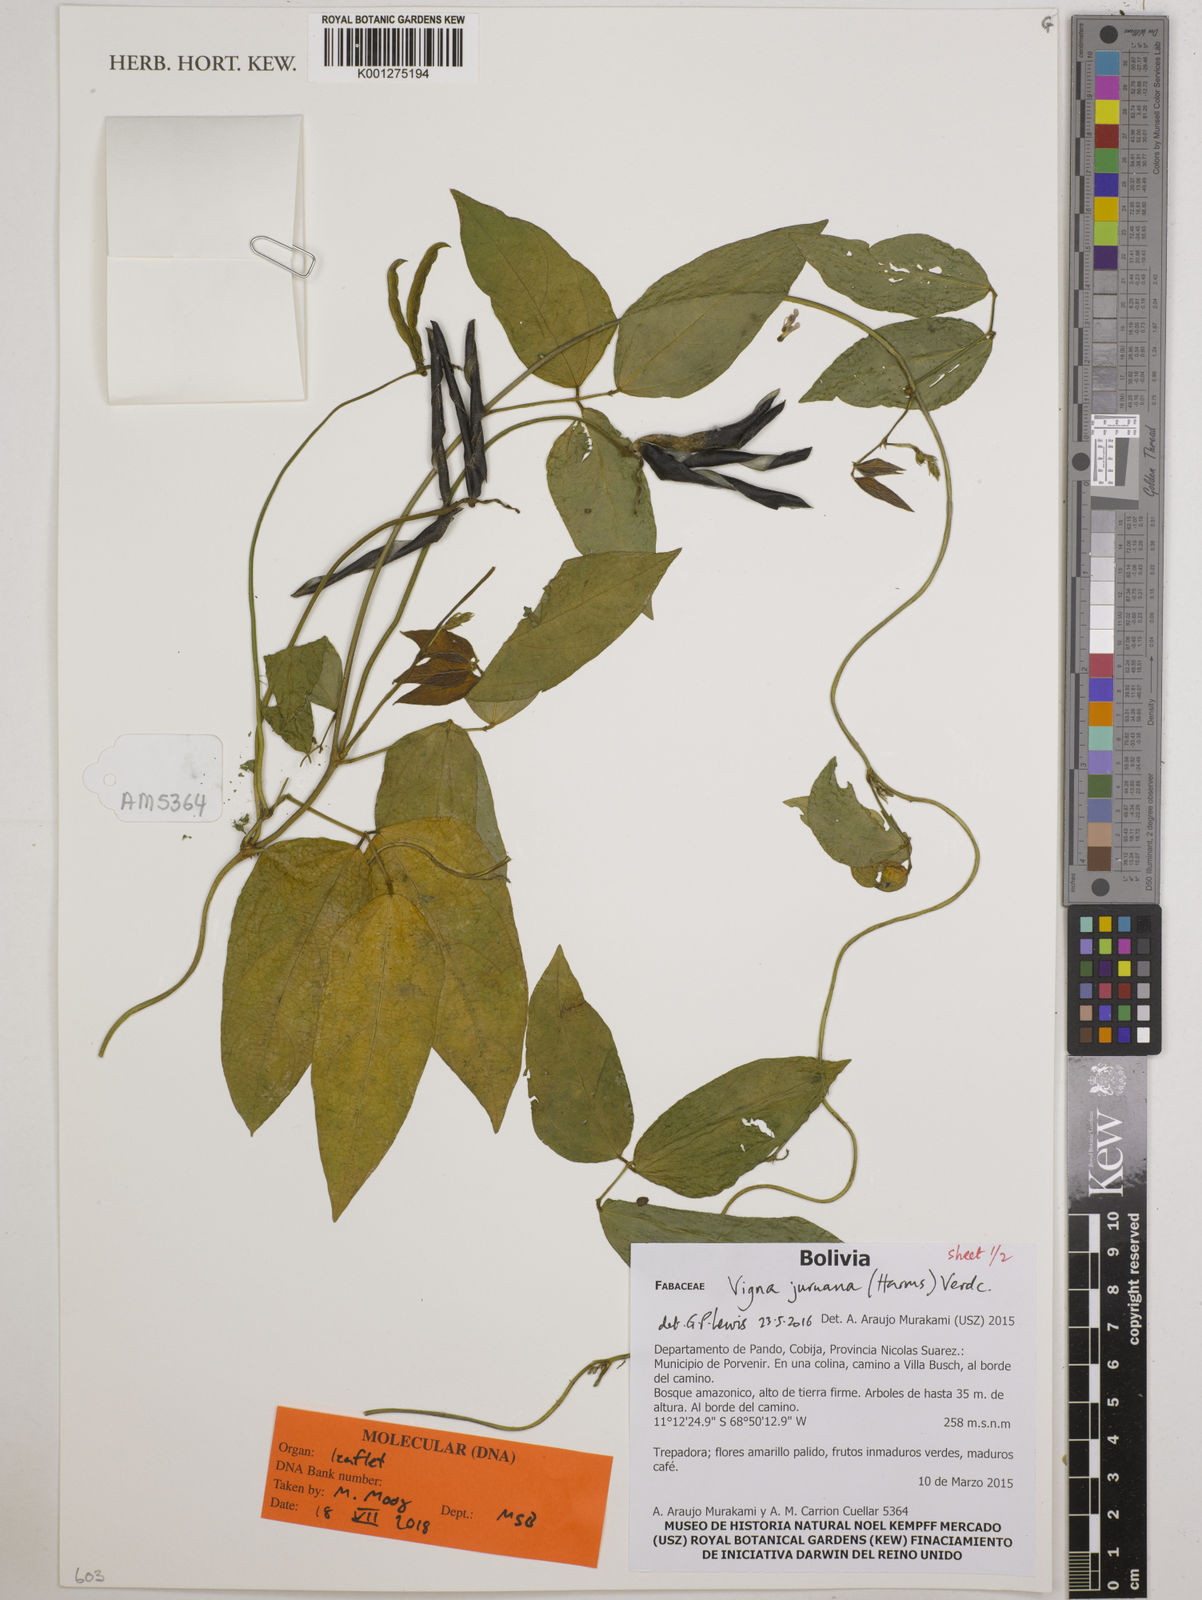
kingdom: Plantae
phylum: Tracheophyta
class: Magnoliopsida
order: Fabales
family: Fabaceae
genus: Vigna
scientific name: Vigna juruana
